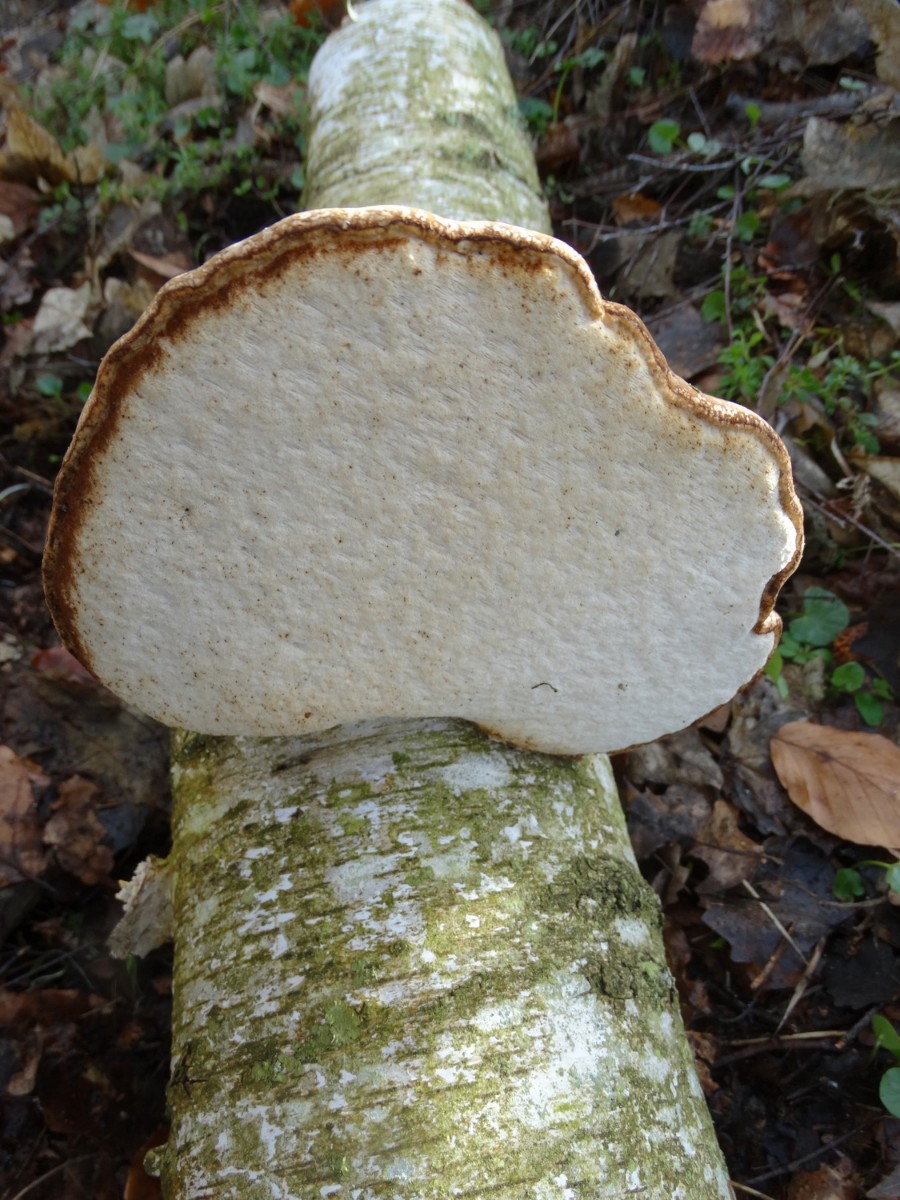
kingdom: Fungi
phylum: Basidiomycota
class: Agaricomycetes
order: Polyporales
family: Fomitopsidaceae
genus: Fomitopsis
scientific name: Fomitopsis betulina
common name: birkeporesvamp
